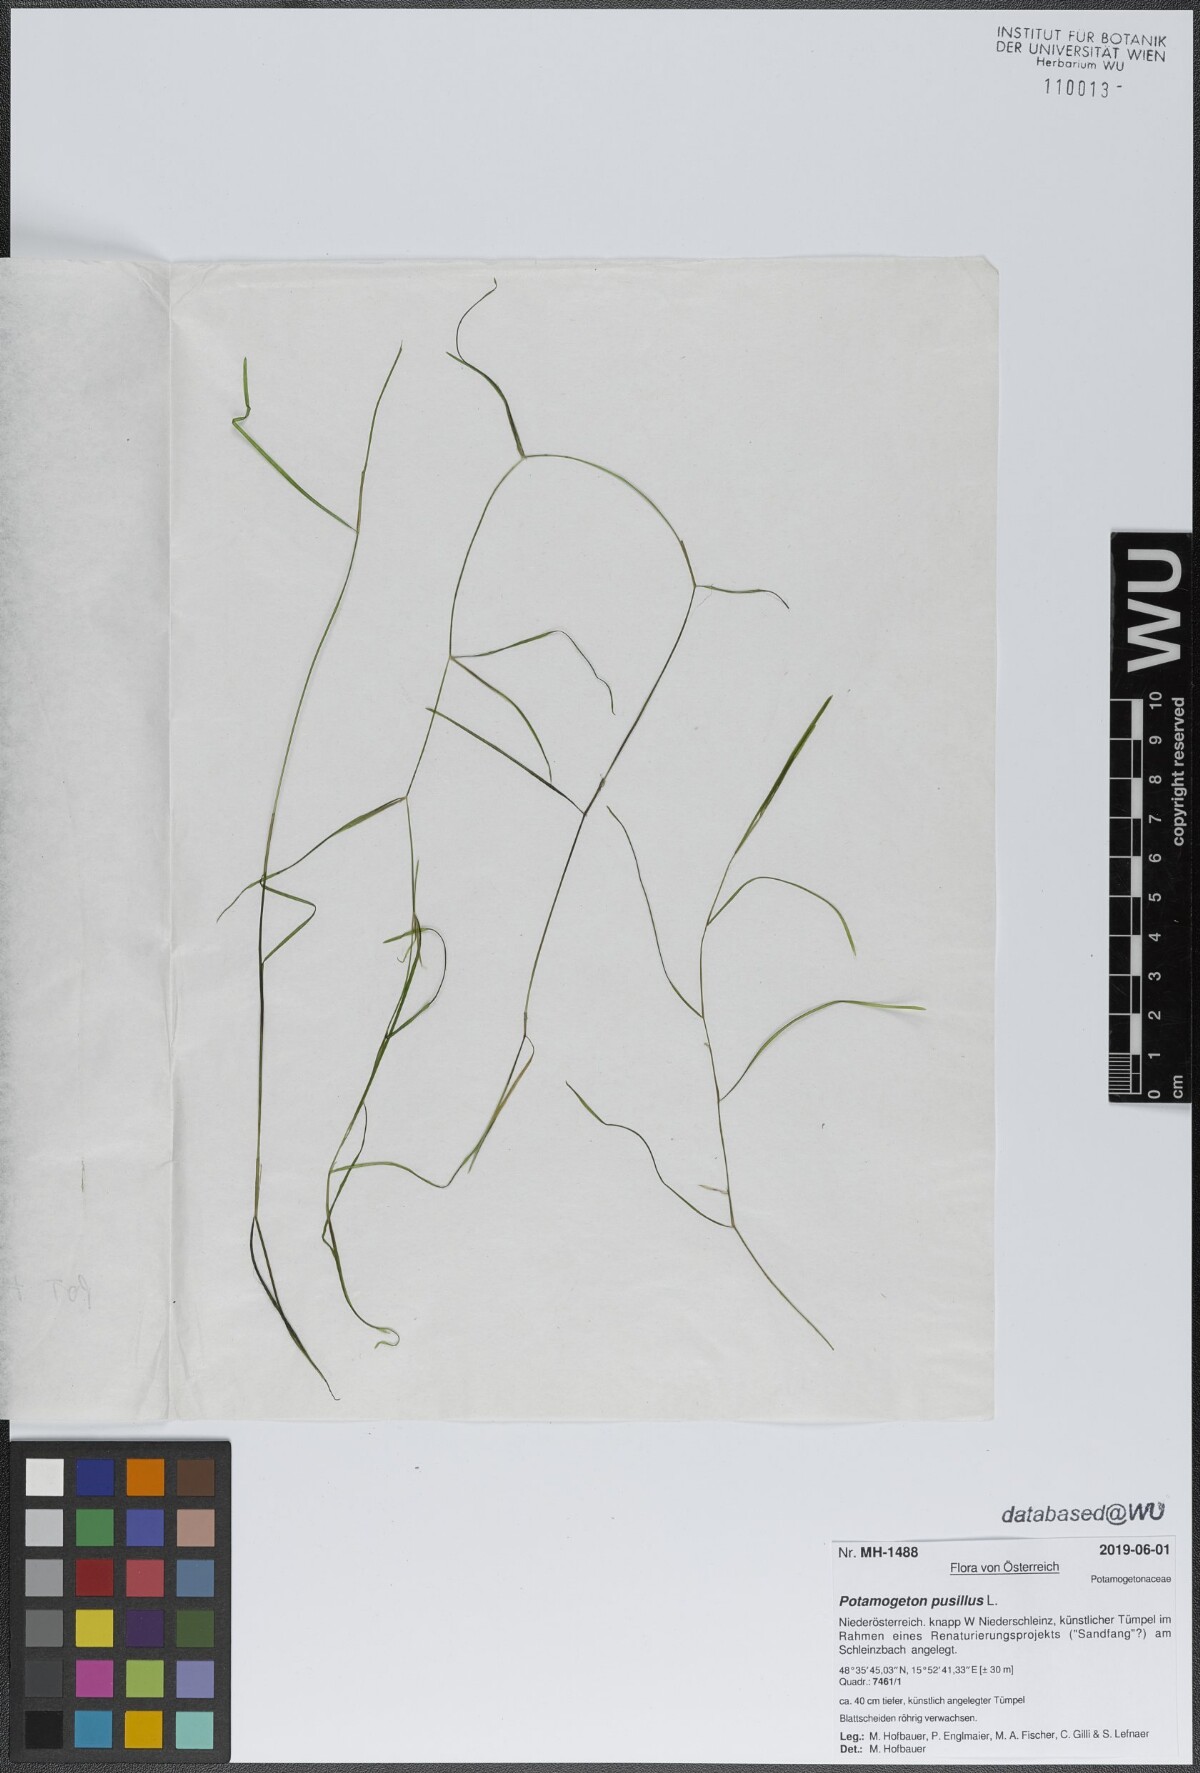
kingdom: Plantae
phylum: Tracheophyta
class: Liliopsida
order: Alismatales
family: Potamogetonaceae
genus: Potamogeton
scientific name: Potamogeton pusillus
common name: Lesser pondweed
